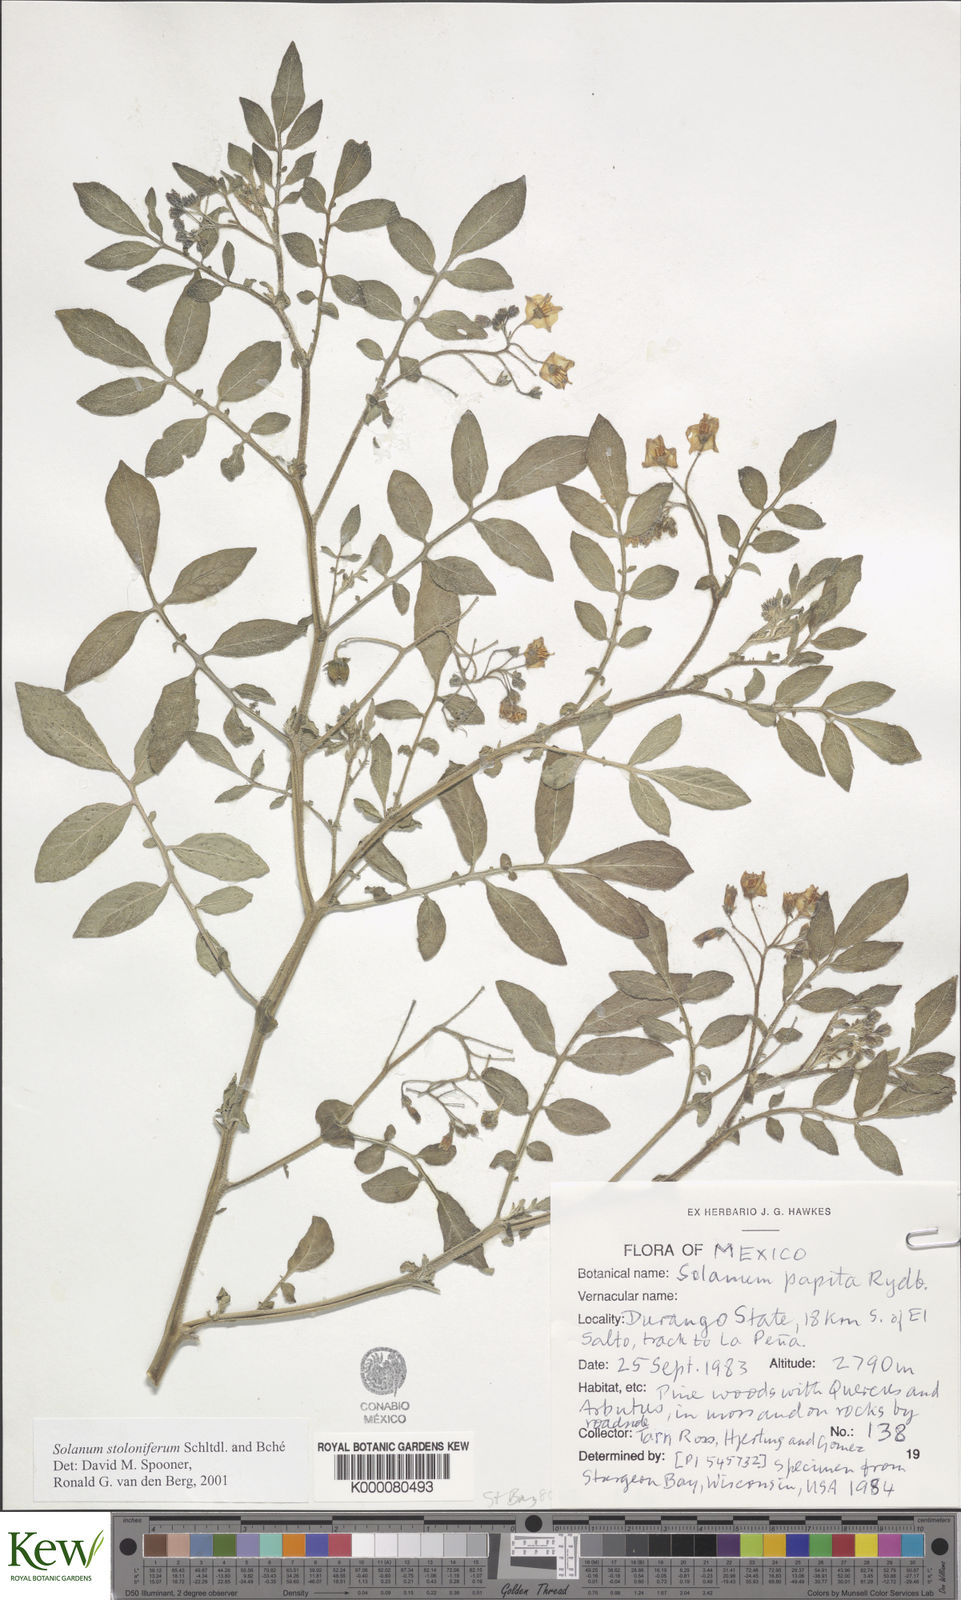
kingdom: Plantae
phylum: Tracheophyta
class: Magnoliopsida
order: Solanales
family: Solanaceae
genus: Solanum
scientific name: Solanum stoloniferum
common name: Fendler's nighshade
